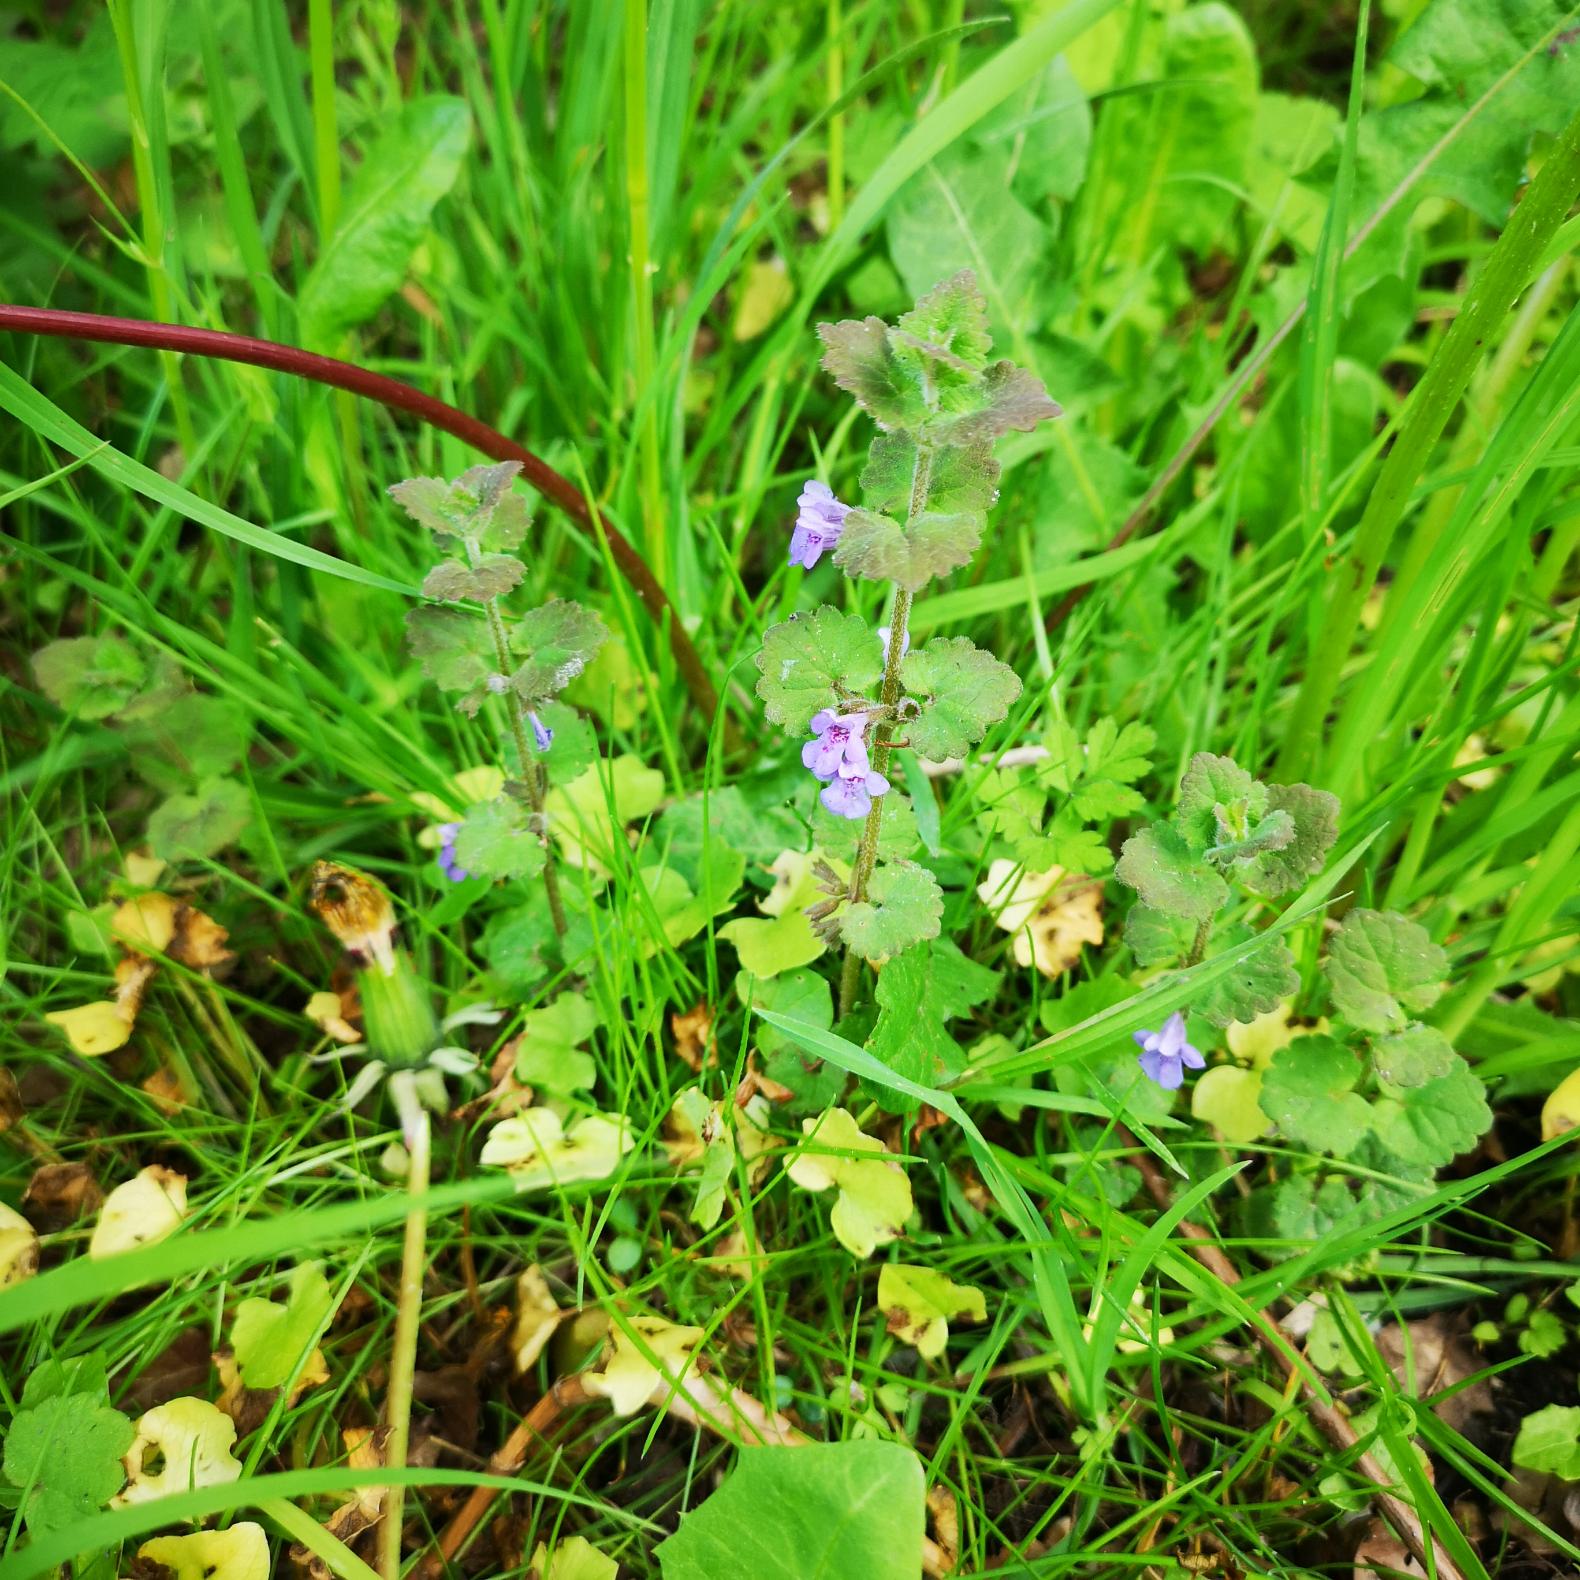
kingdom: Plantae
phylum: Tracheophyta
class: Magnoliopsida
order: Lamiales
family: Lamiaceae
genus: Glechoma
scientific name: Glechoma hederacea
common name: Korsknap
